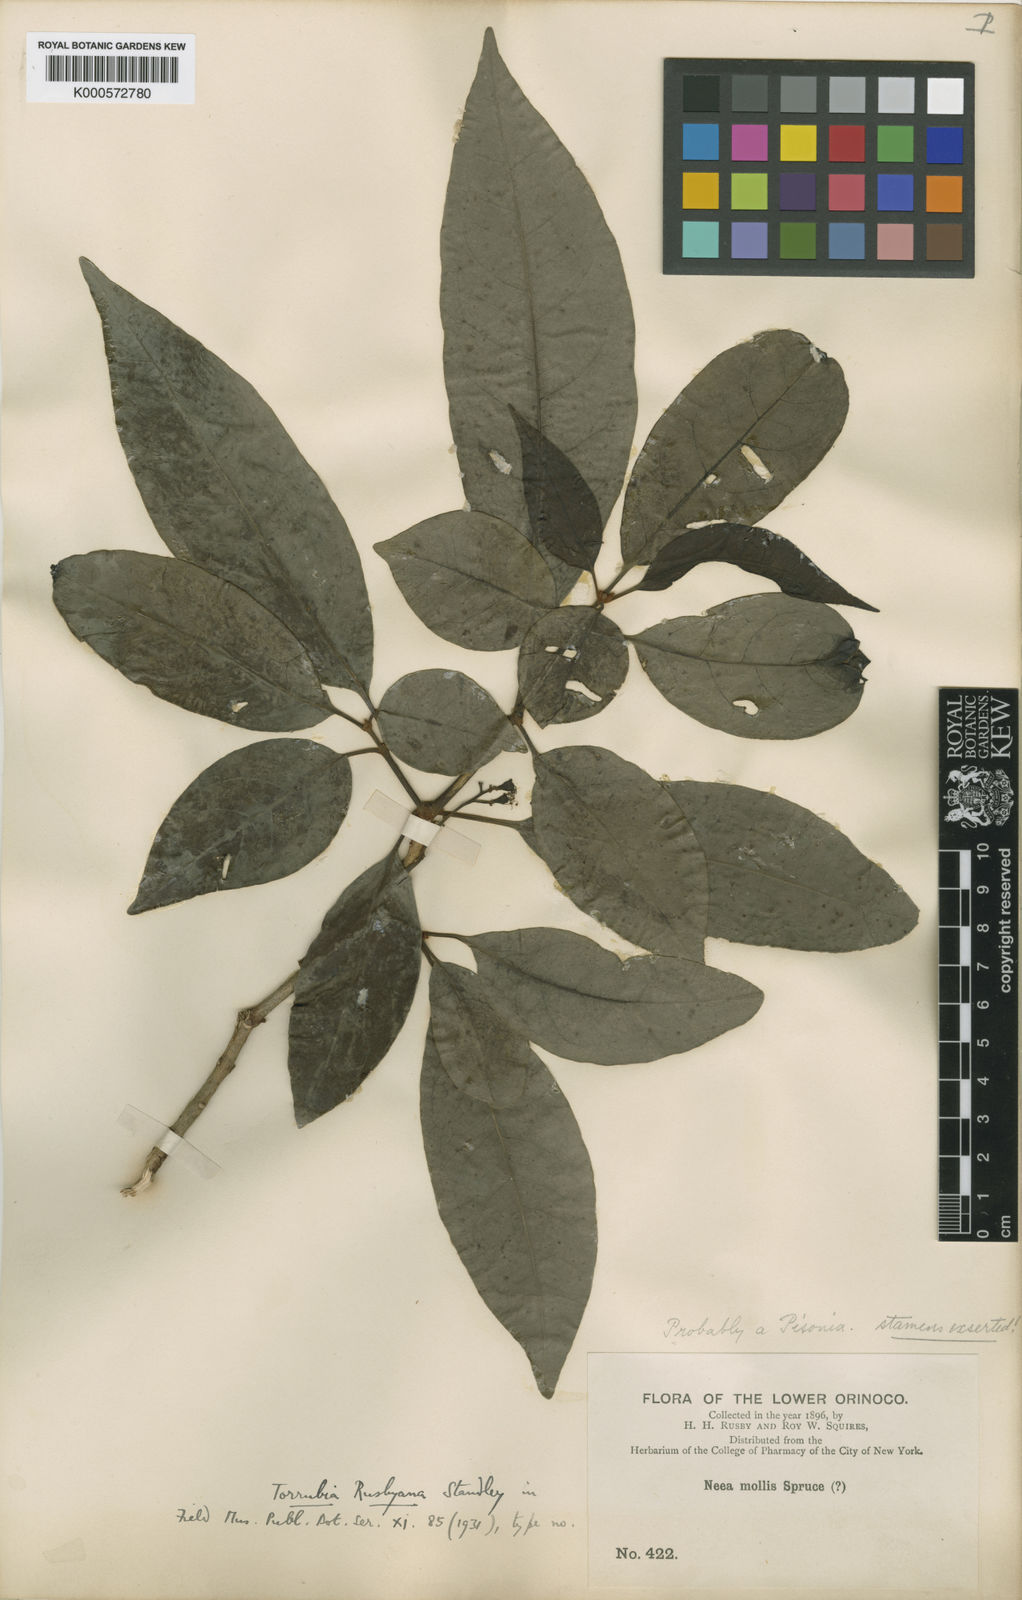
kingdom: Plantae
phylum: Tracheophyta
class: Magnoliopsida
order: Caryophyllales
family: Nyctaginaceae
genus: Guapira
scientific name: Guapira rusbyana
